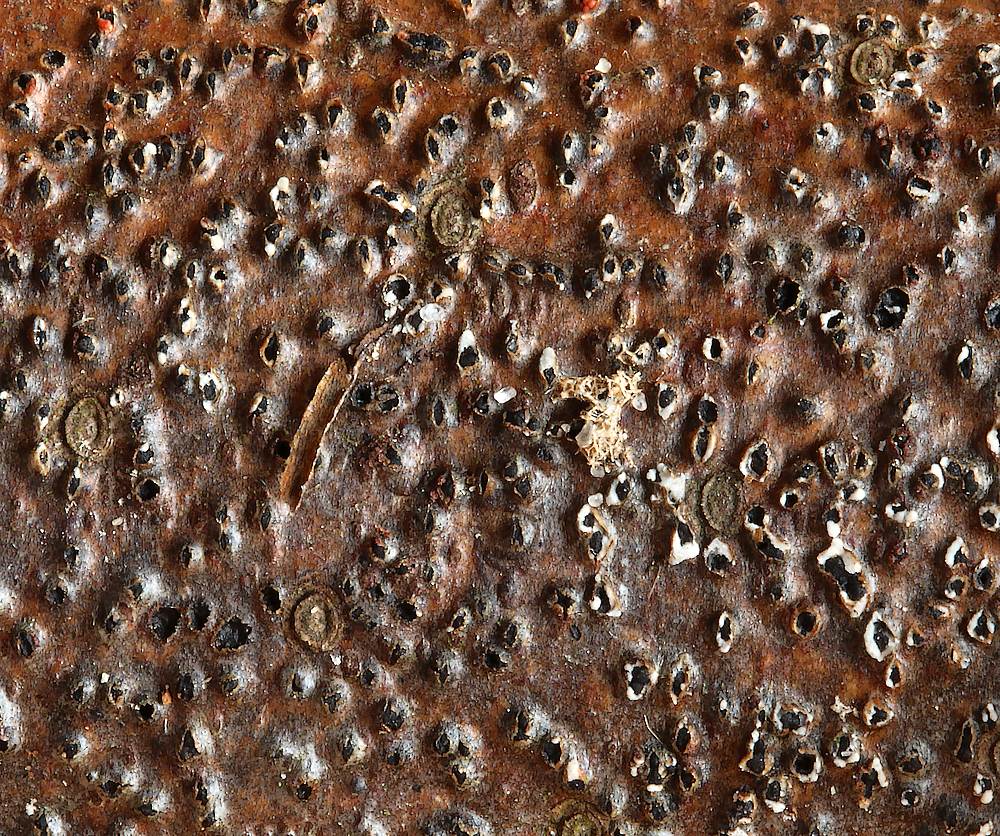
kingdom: Fungi
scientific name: Fungi
